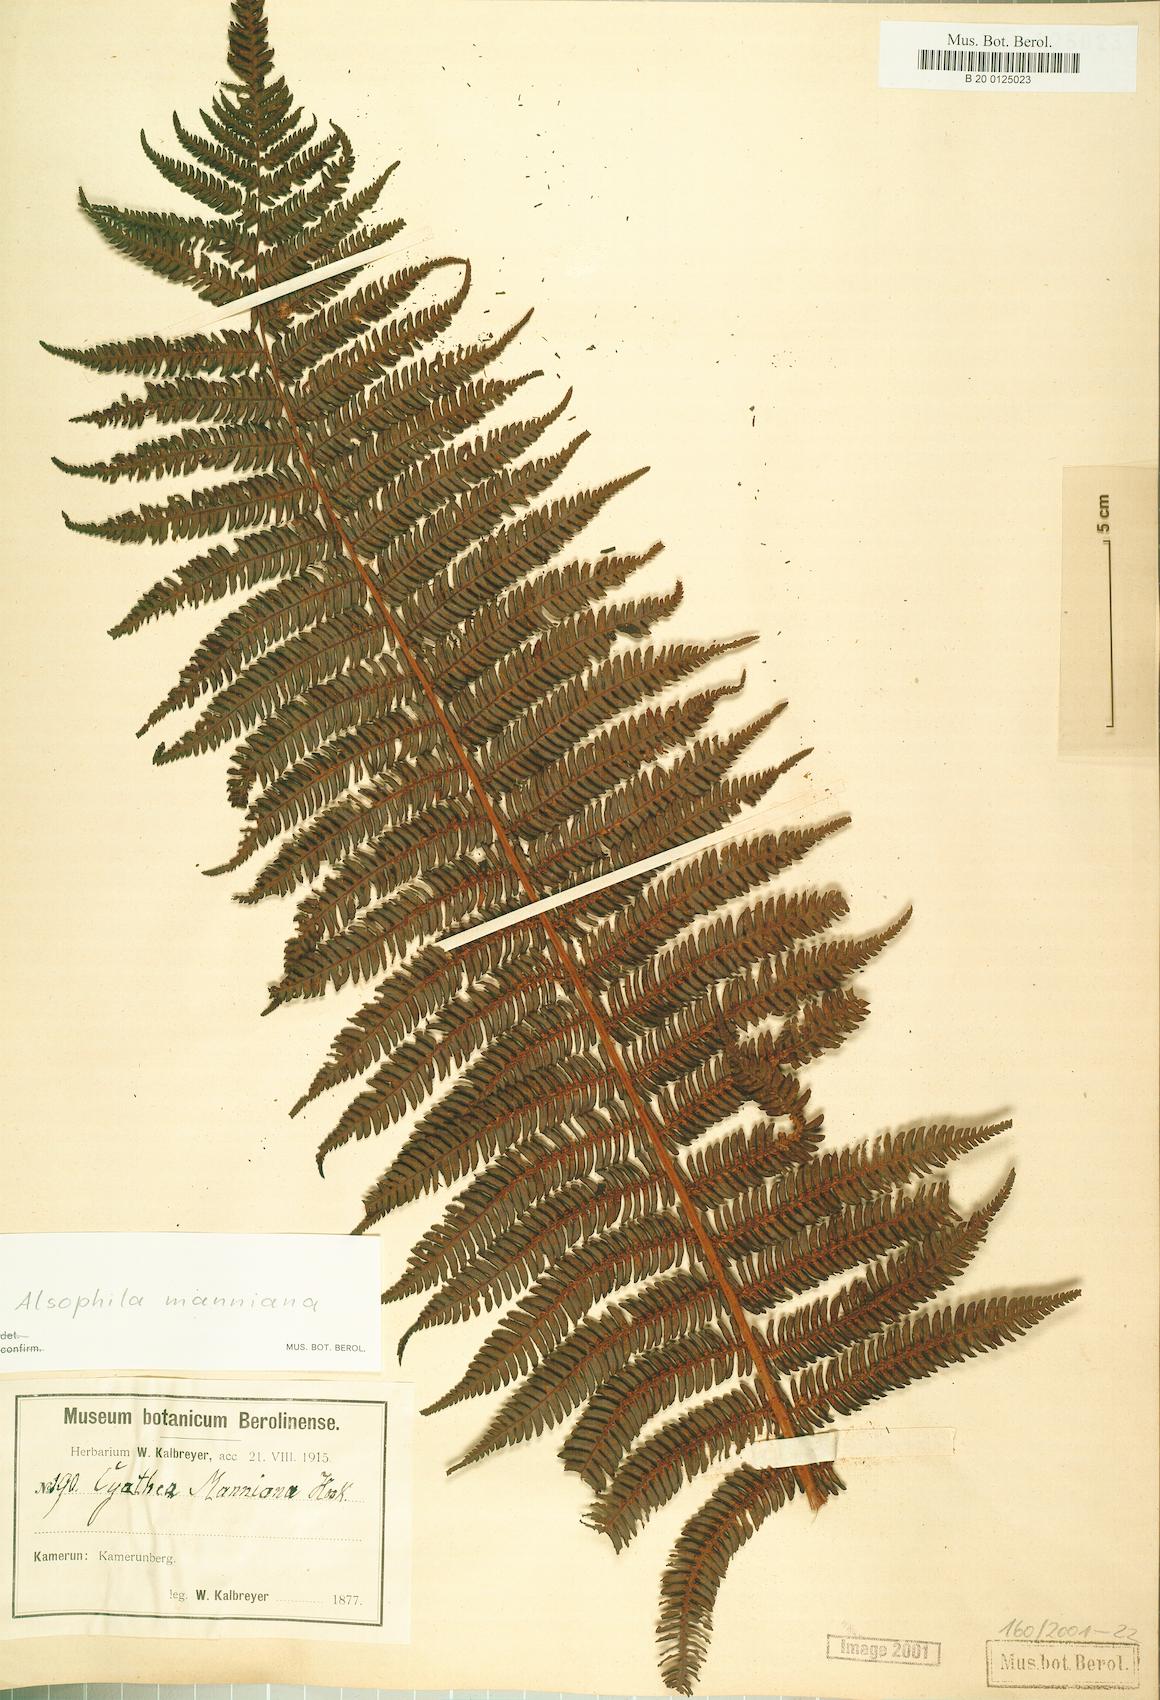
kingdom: Plantae
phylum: Tracheophyta
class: Polypodiopsida
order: Cyatheales
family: Cyatheaceae
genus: Alsophila
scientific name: Alsophila manniana
